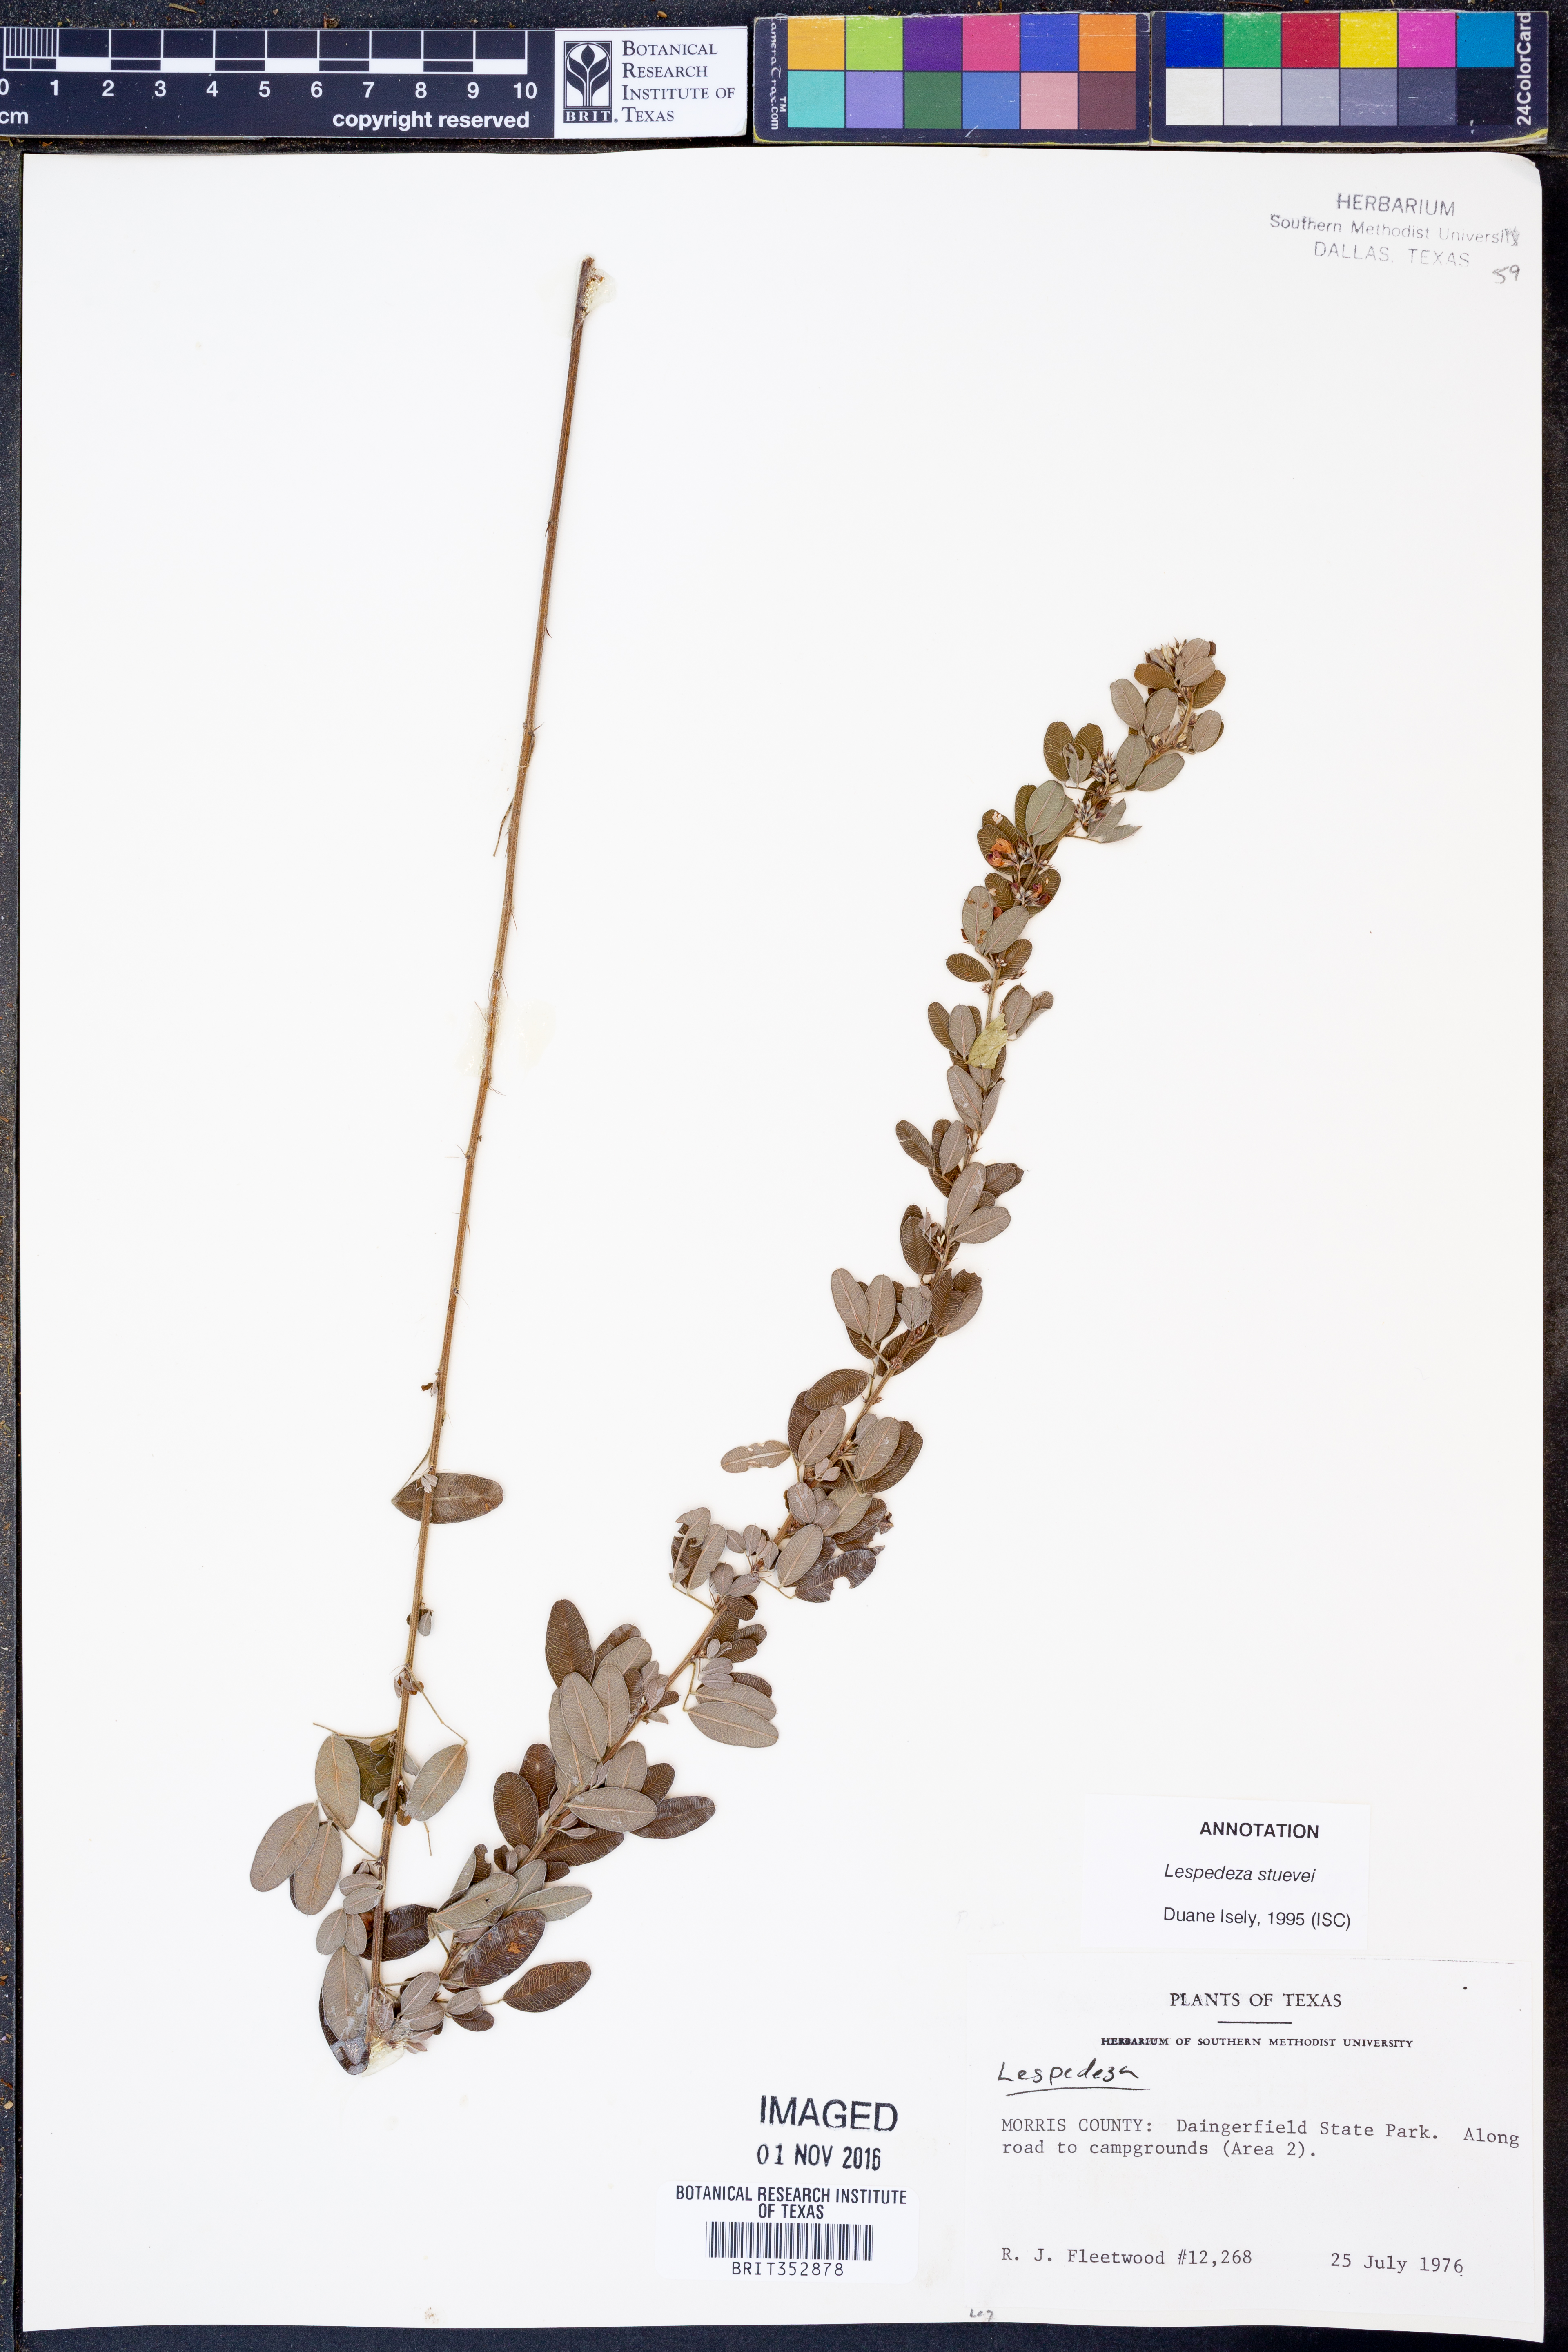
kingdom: Plantae
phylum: Tracheophyta
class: Magnoliopsida
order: Fabales
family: Fabaceae
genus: Lespedeza
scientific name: Lespedeza stuevei
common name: Tall bush-clover
